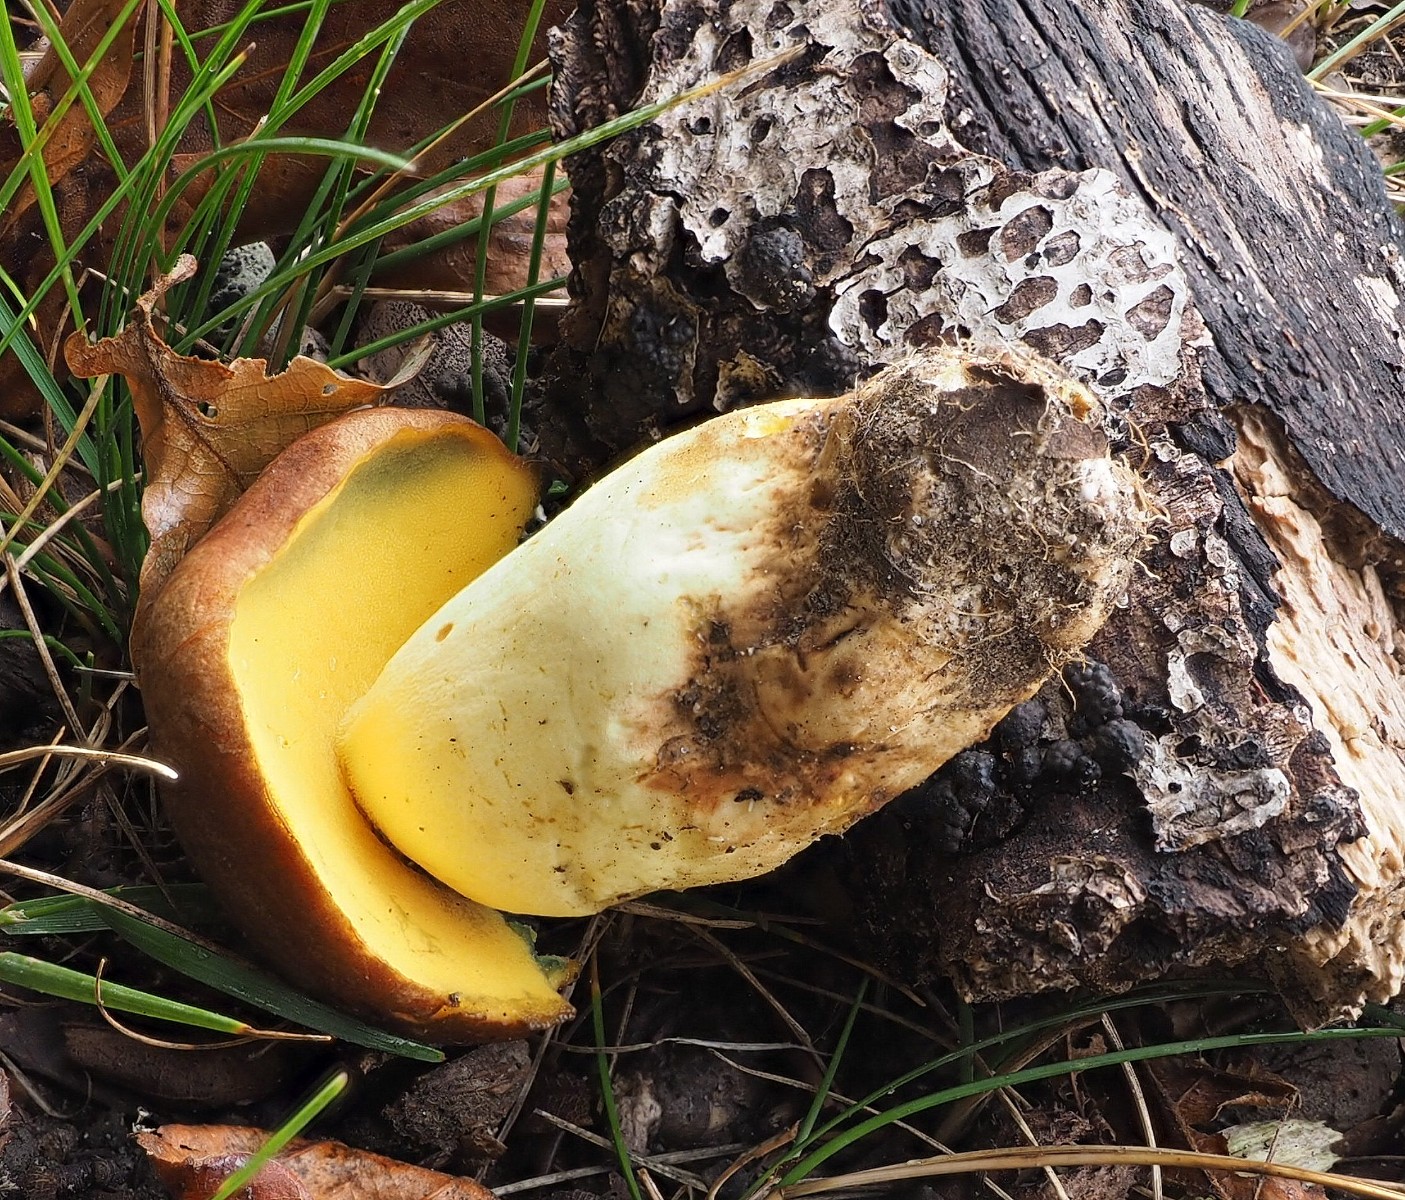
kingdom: Fungi
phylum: Basidiomycota
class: Agaricomycetes
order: Boletales
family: Boletaceae
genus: Butyriboletus
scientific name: Butyriboletus appendiculatus
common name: tenstokket rørhat
